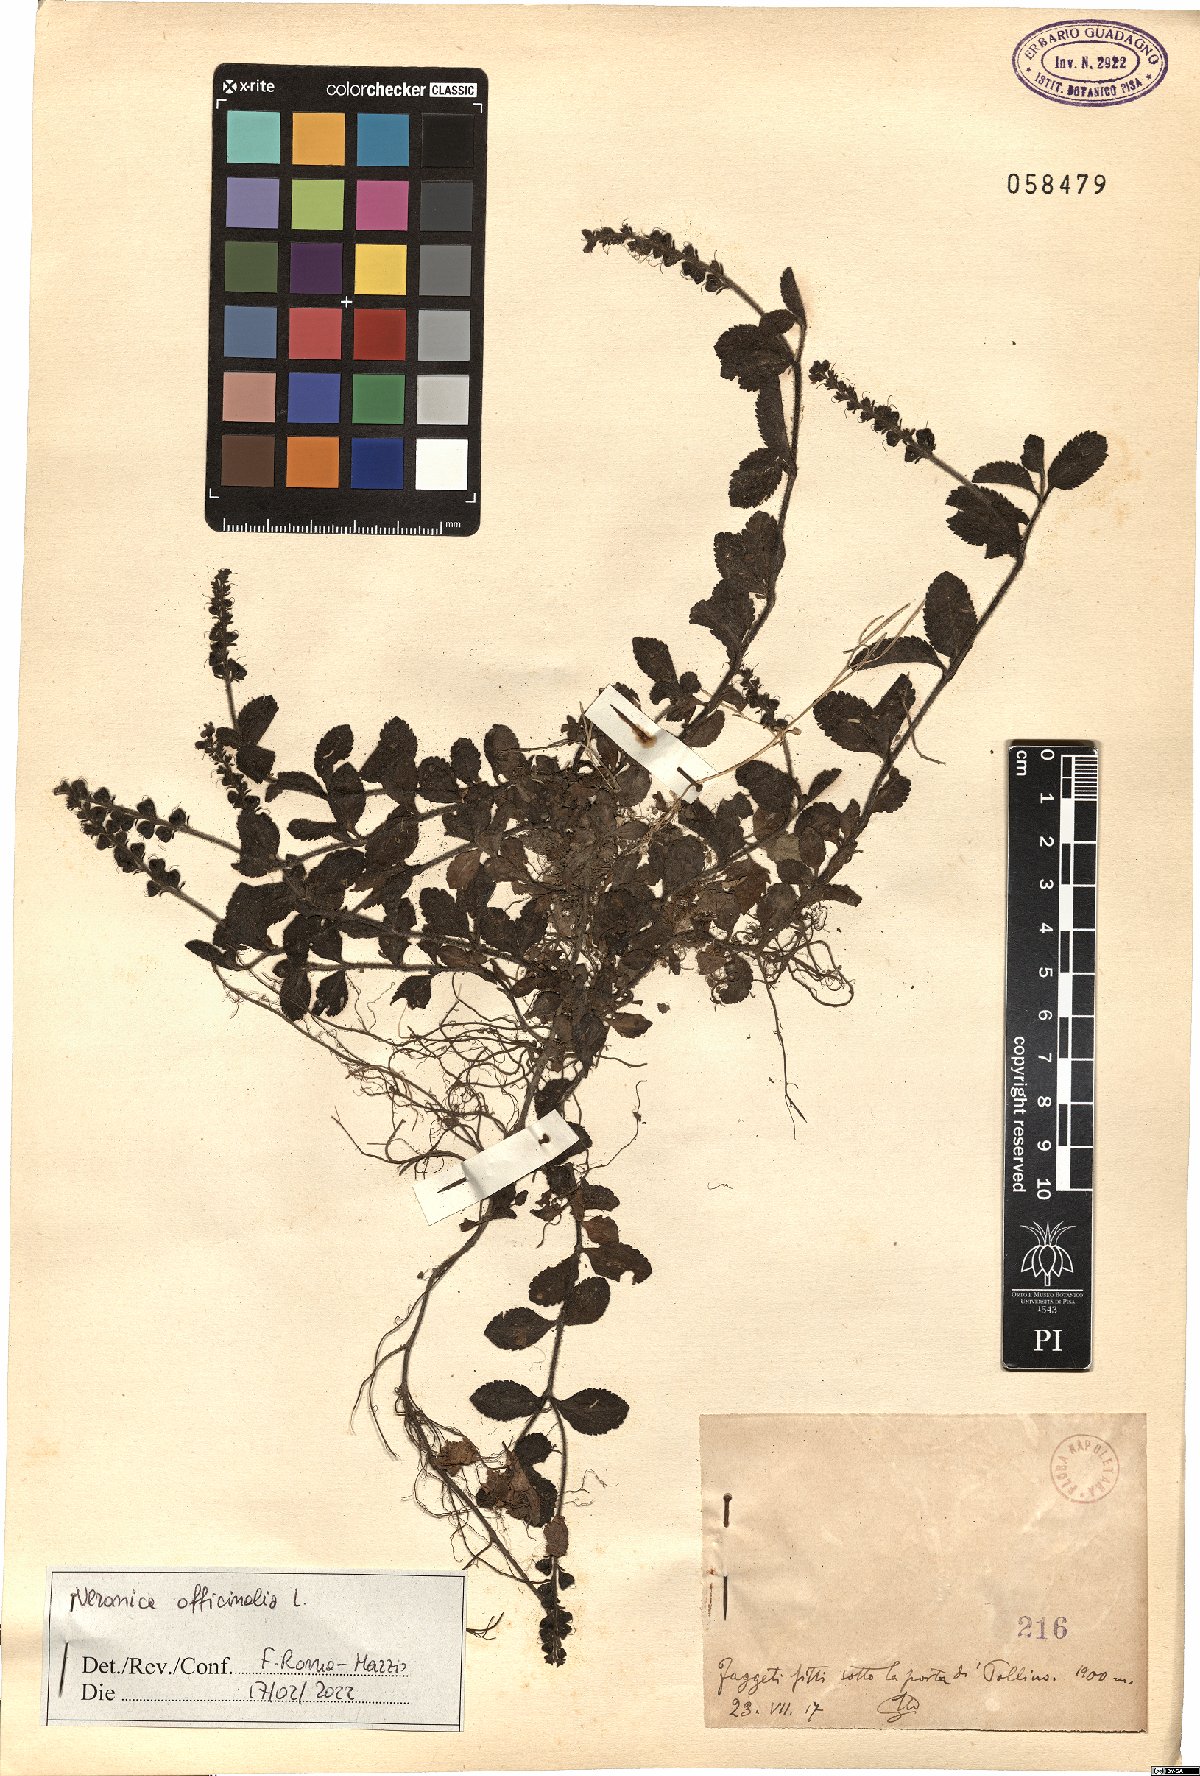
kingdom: Plantae
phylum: Tracheophyta
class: Magnoliopsida
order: Lamiales
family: Plantaginaceae
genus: Veronica
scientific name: Veronica officinalis
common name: Common speedwell
